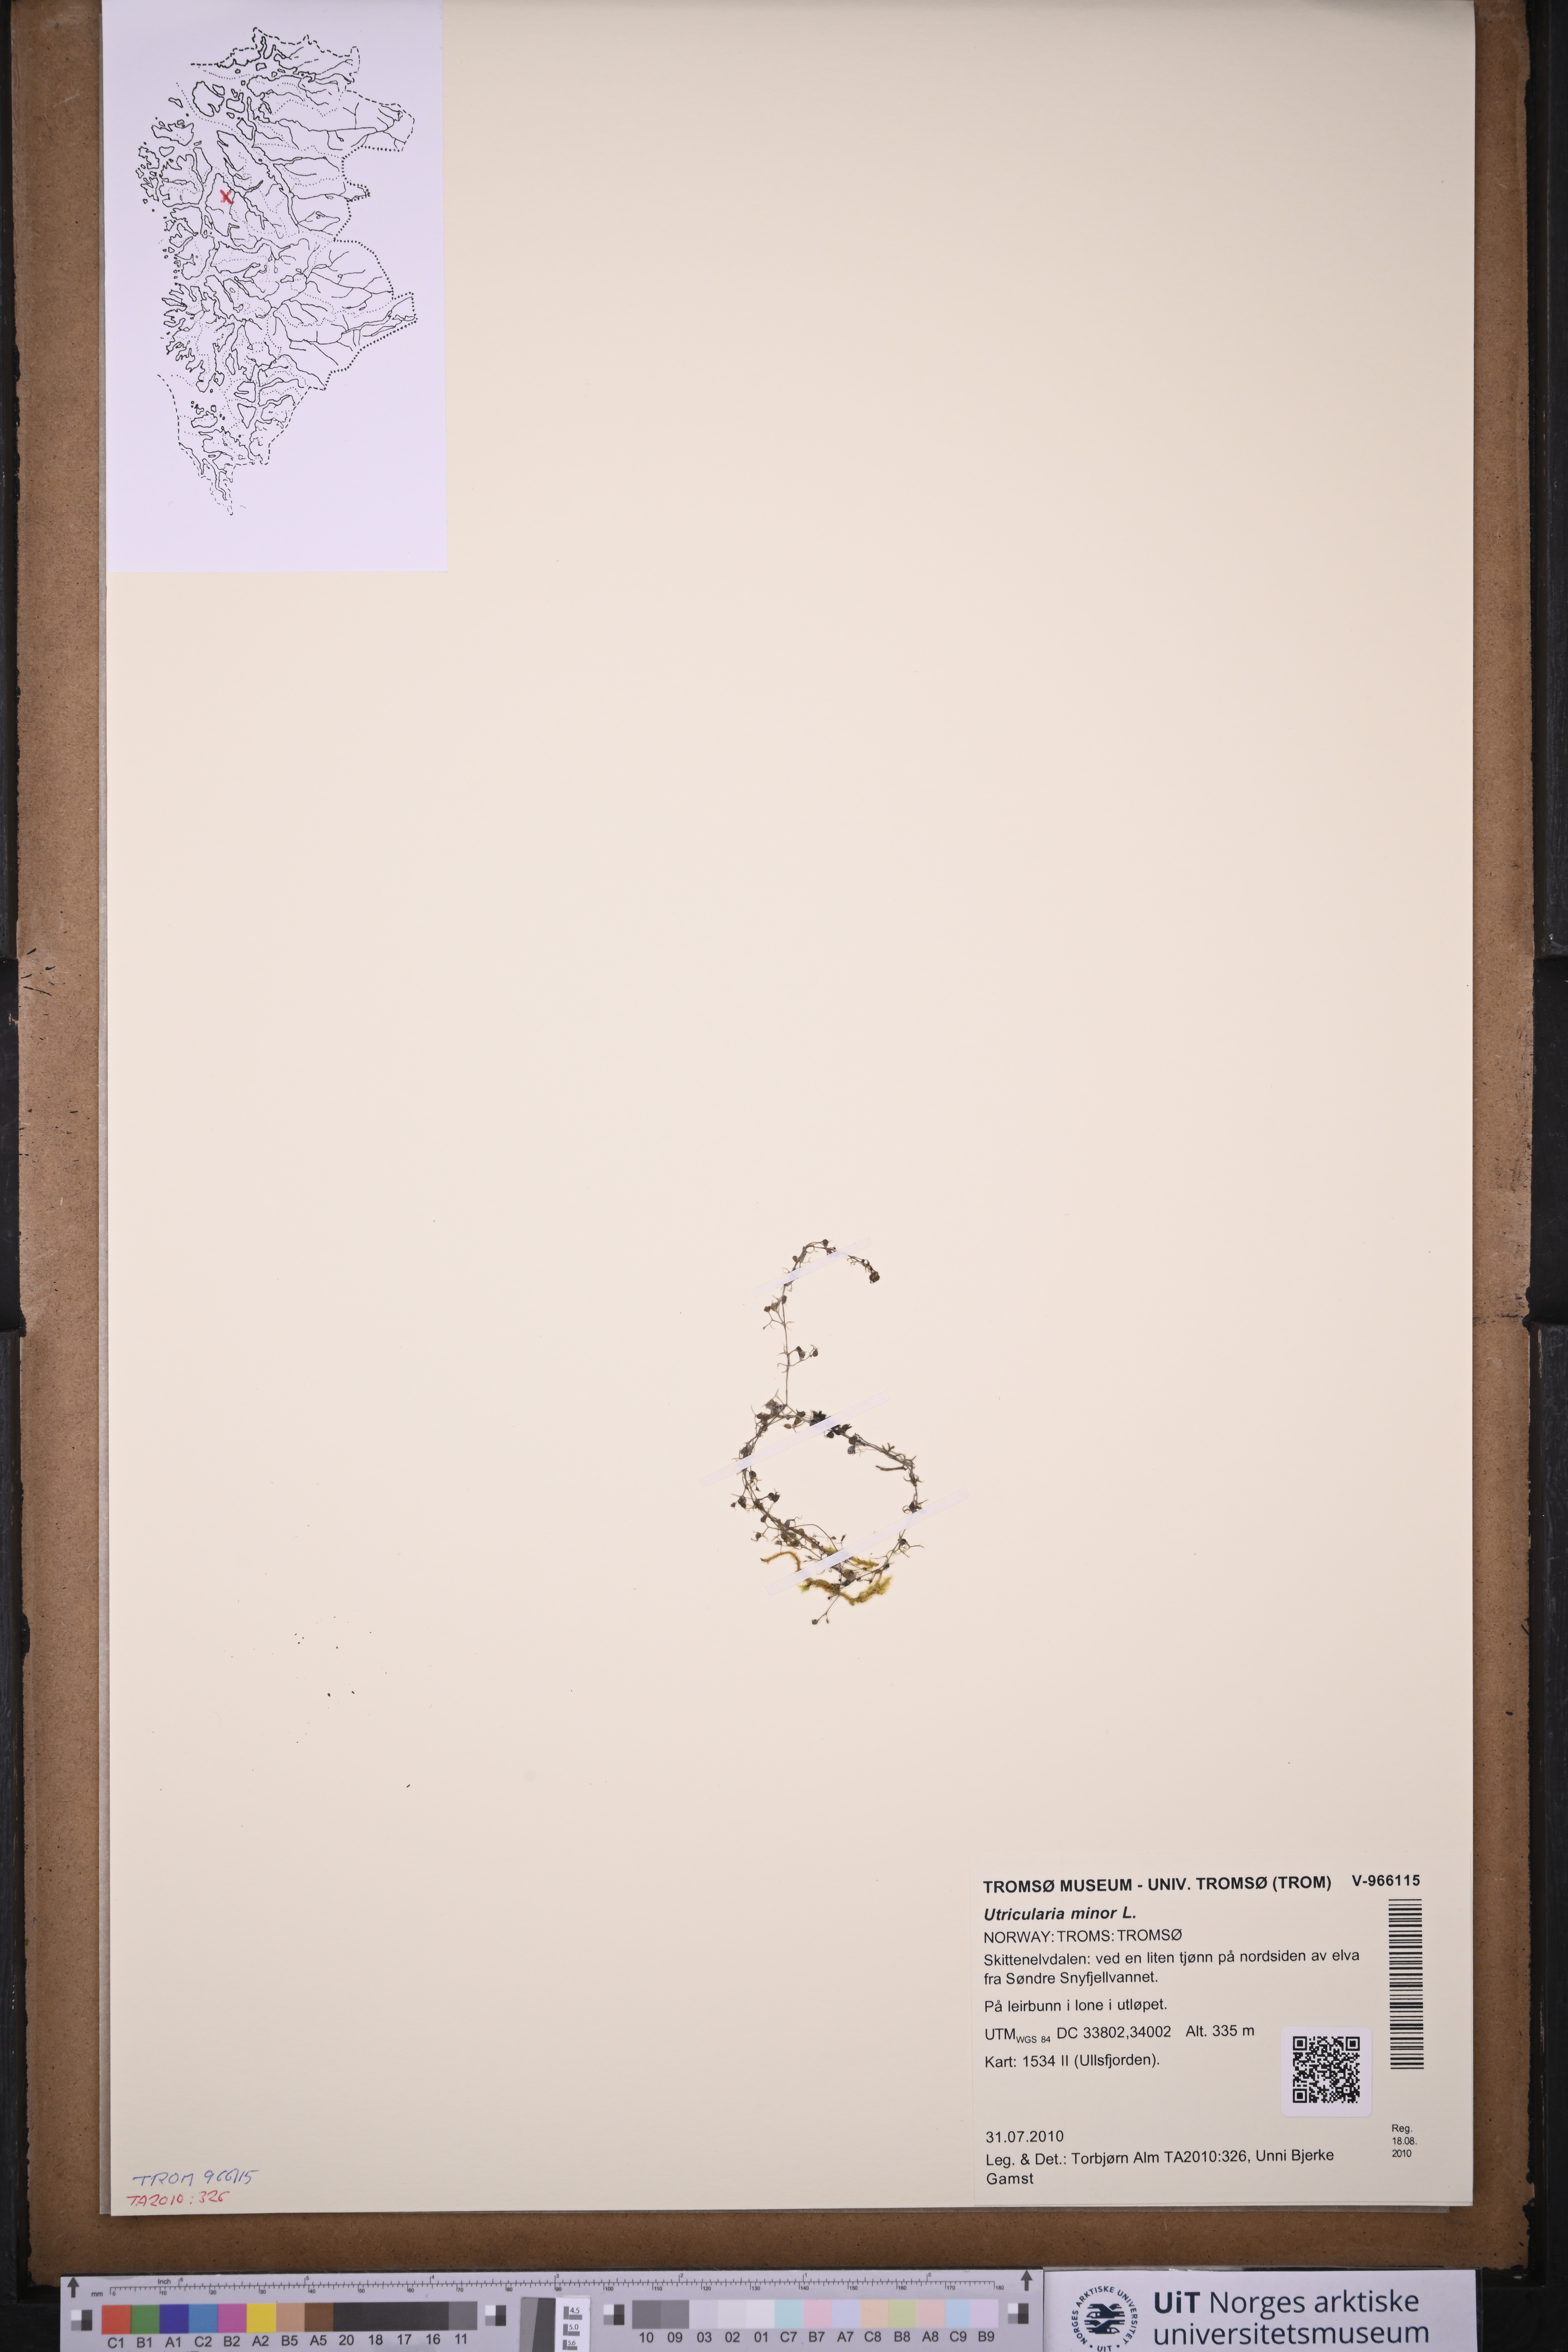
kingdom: Plantae
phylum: Tracheophyta
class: Magnoliopsida
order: Lamiales
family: Lentibulariaceae
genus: Utricularia
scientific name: Utricularia minor
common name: Lesser bladderwort
